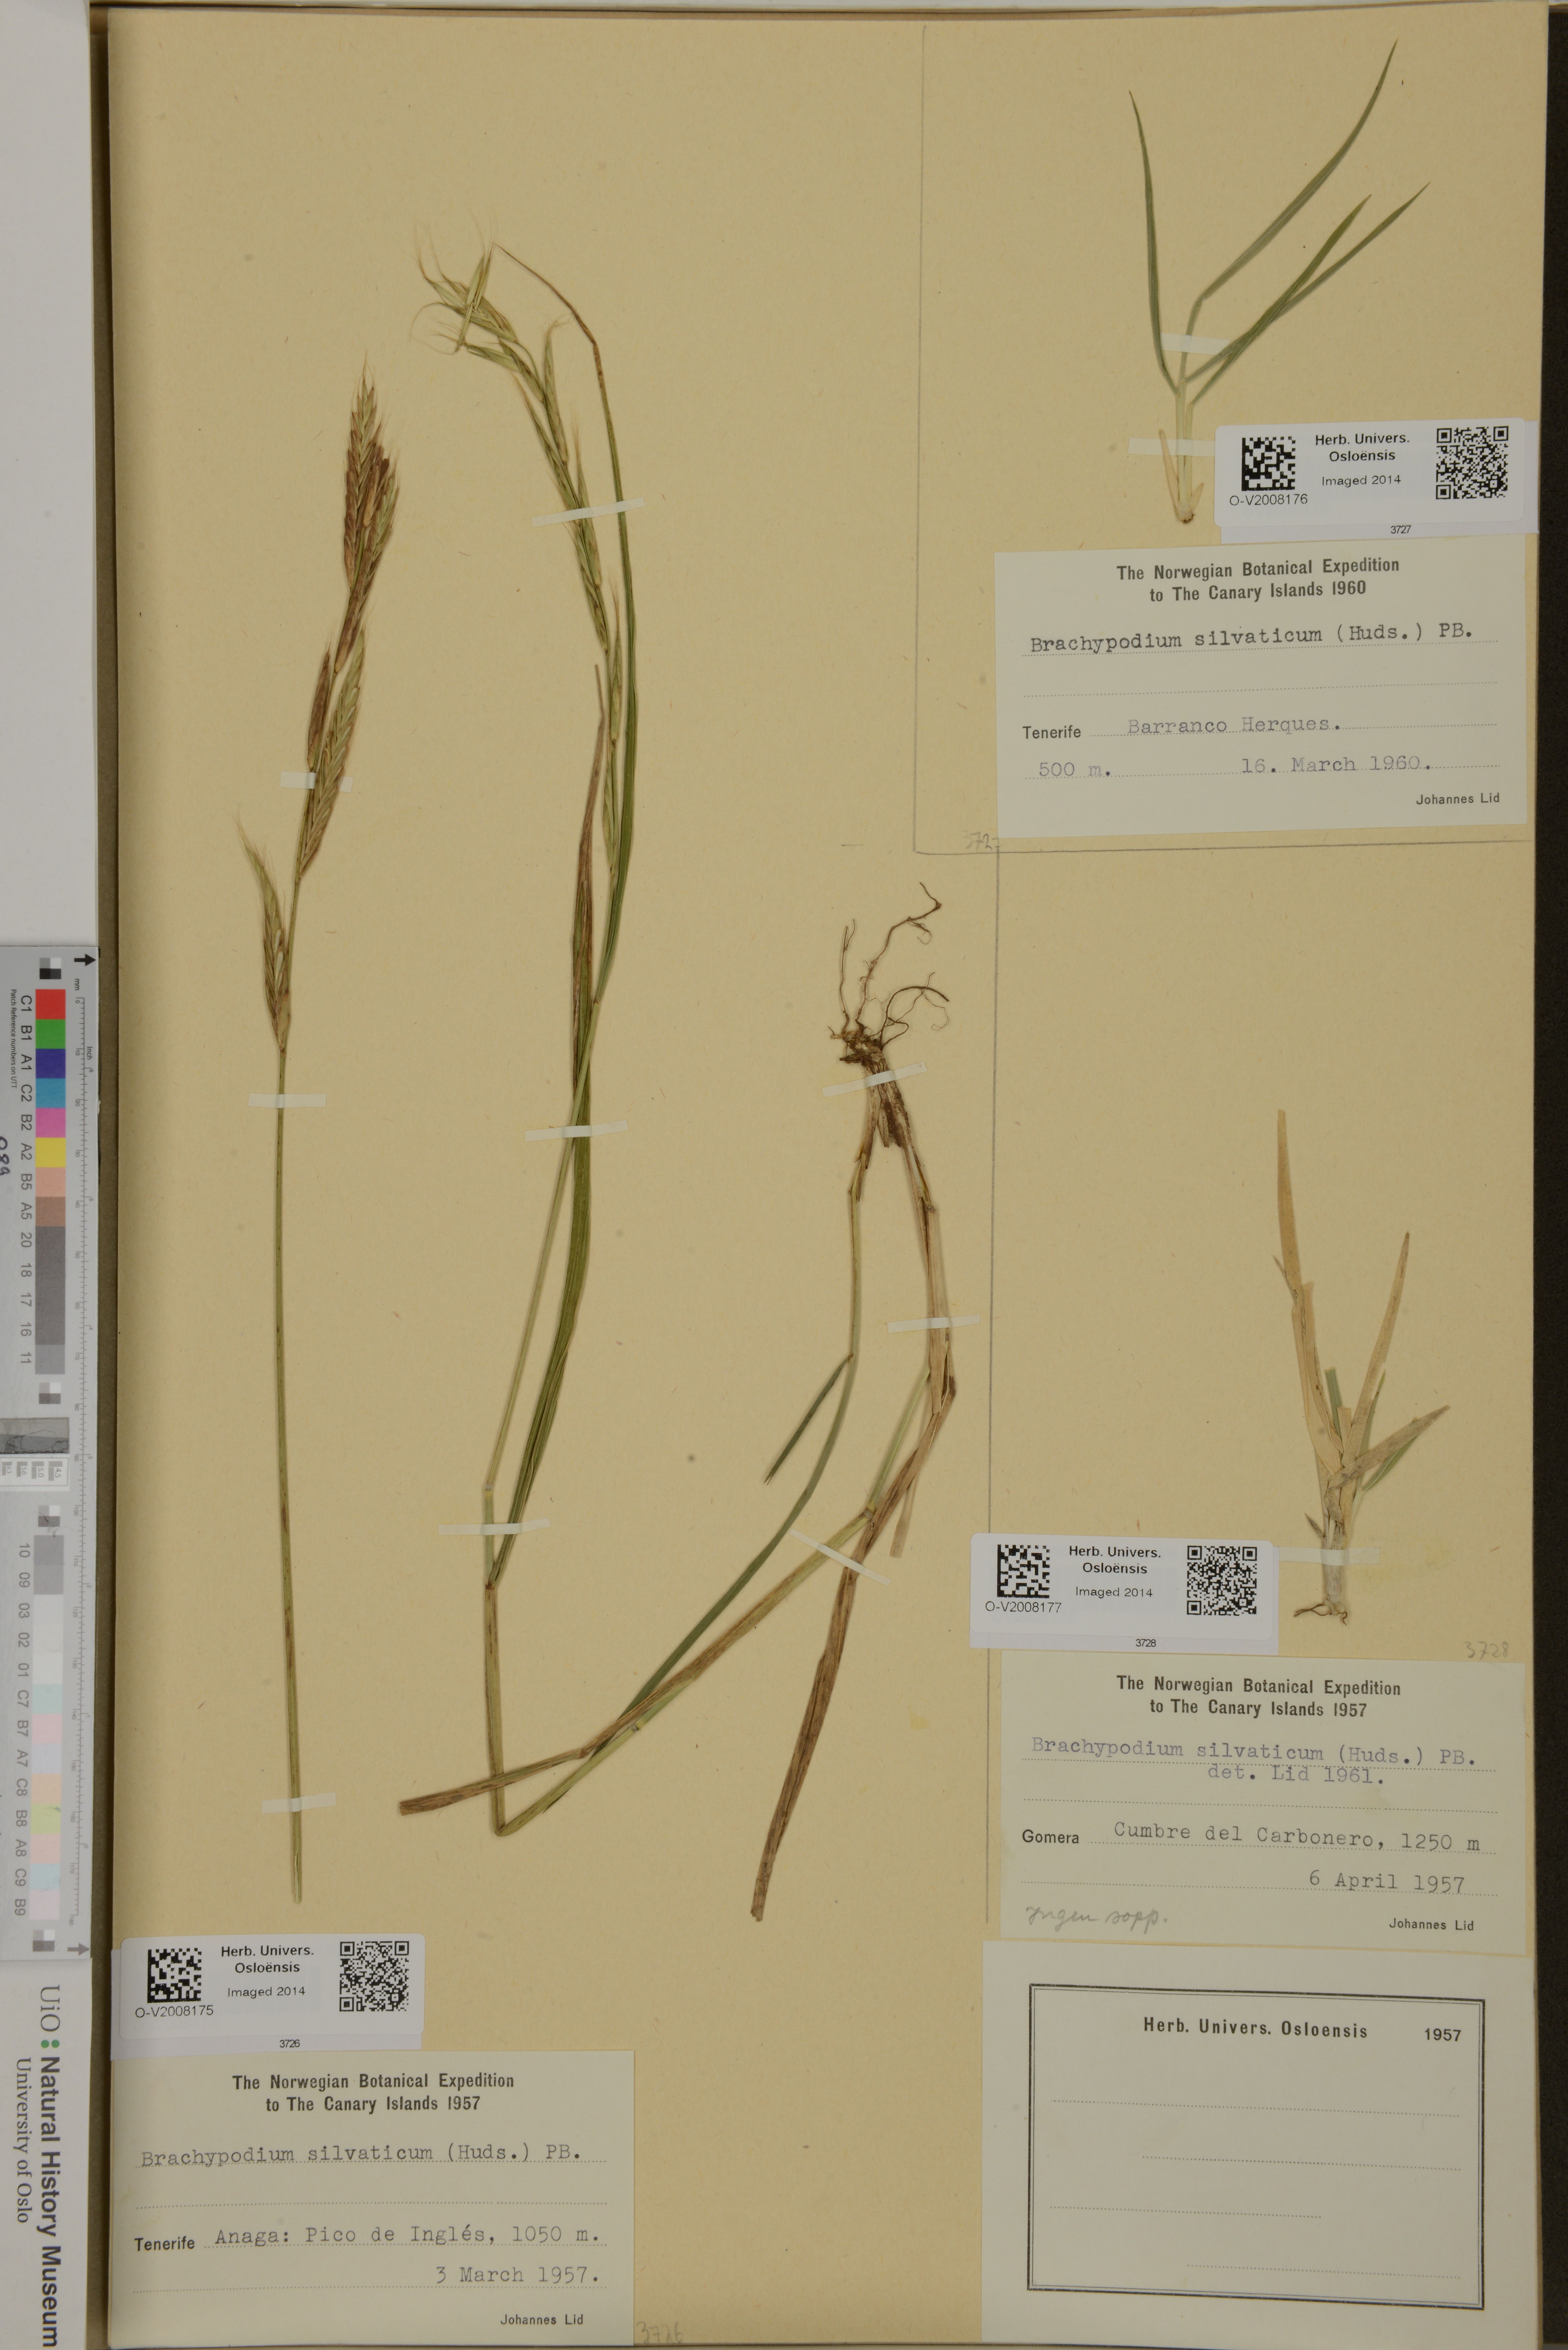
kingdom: Plantae
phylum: Tracheophyta
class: Liliopsida
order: Poales
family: Poaceae
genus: Brachypodium
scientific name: Brachypodium sylvaticum
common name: False-brome
